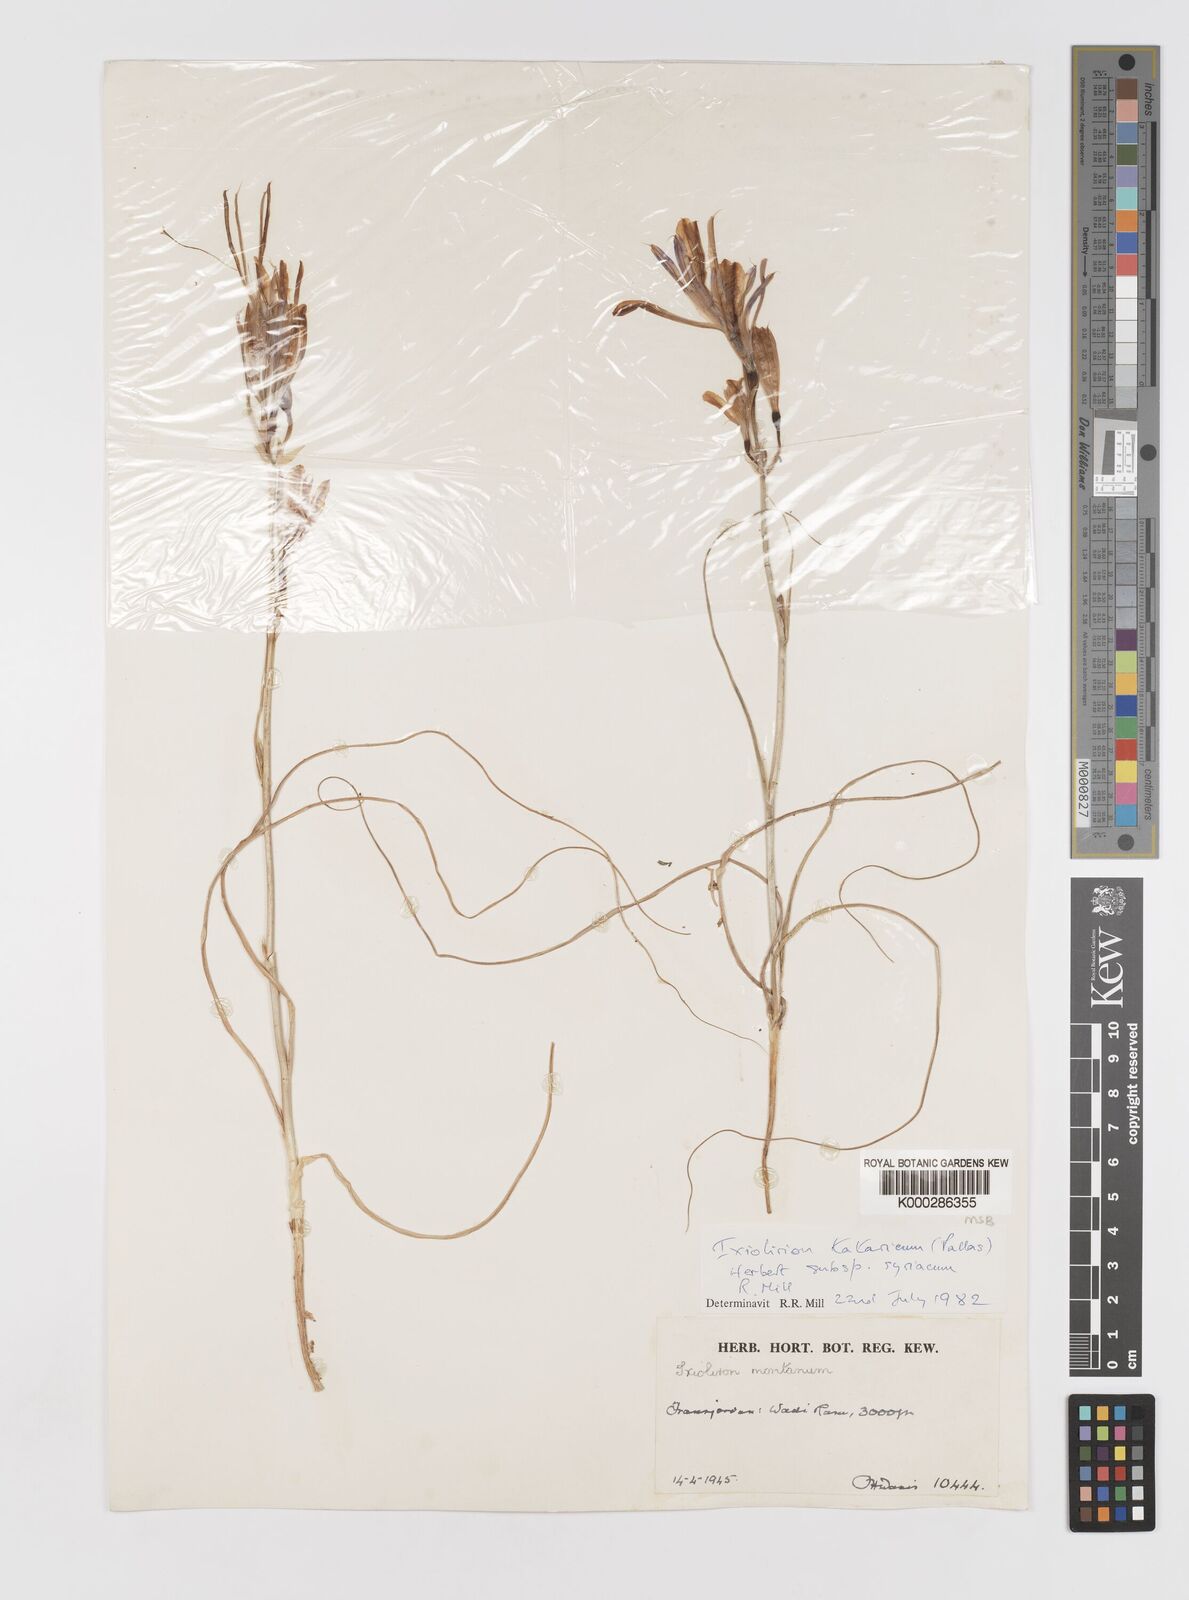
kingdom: Plantae
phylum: Tracheophyta
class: Liliopsida
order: Asparagales
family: Ixioliriaceae
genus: Ixiolirion
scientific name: Ixiolirion tataricum
